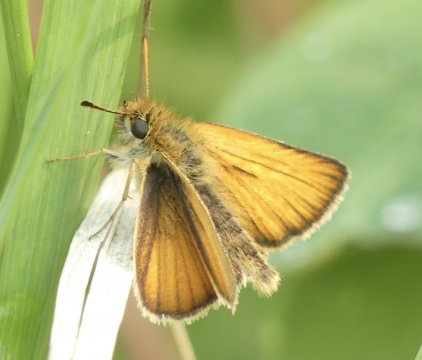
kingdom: Animalia
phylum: Arthropoda
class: Insecta
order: Lepidoptera
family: Hesperiidae
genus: Thymelicus
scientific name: Thymelicus lineola
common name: European Skipper
